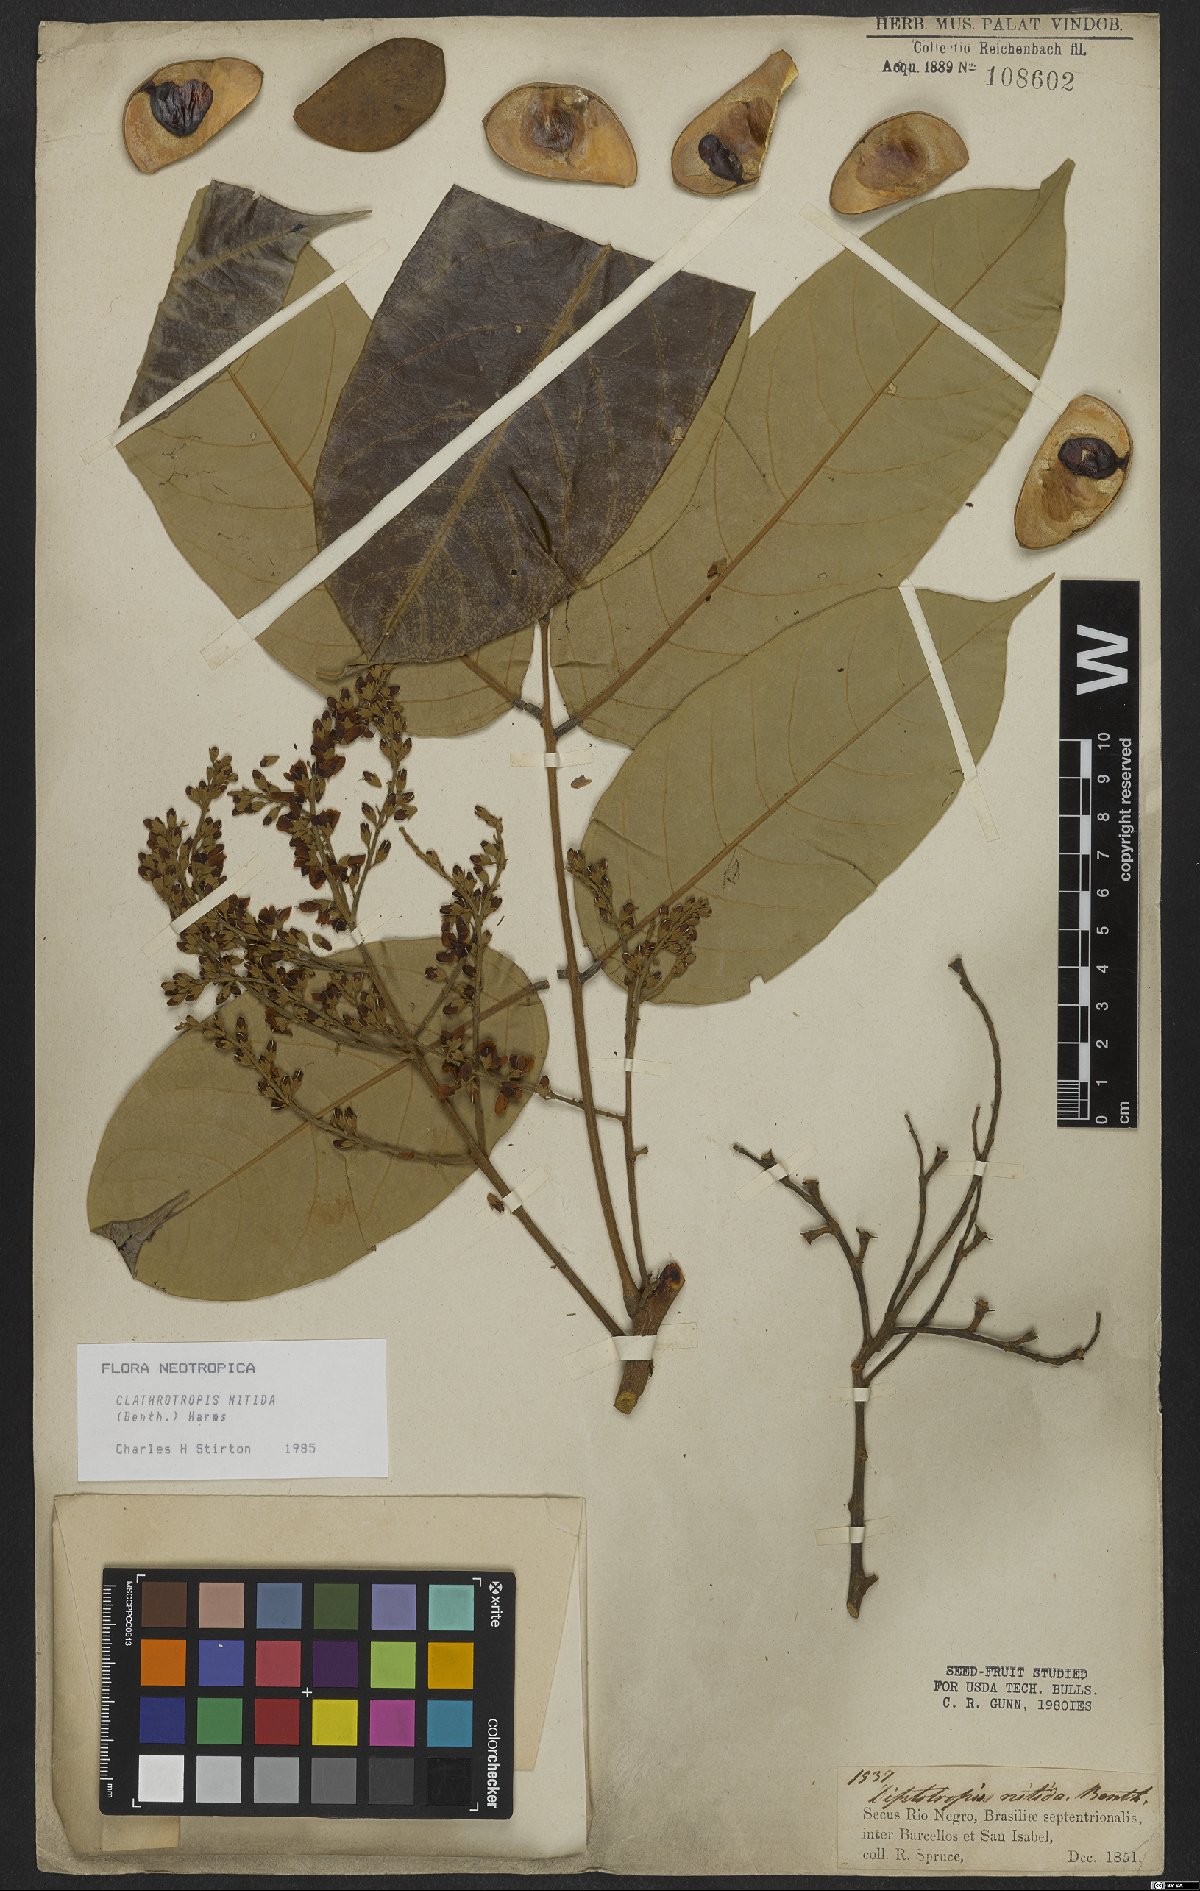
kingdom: Plantae
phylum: Tracheophyta
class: Magnoliopsida
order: Fabales
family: Fabaceae
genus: Clathrotropis
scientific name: Clathrotropis nitida
